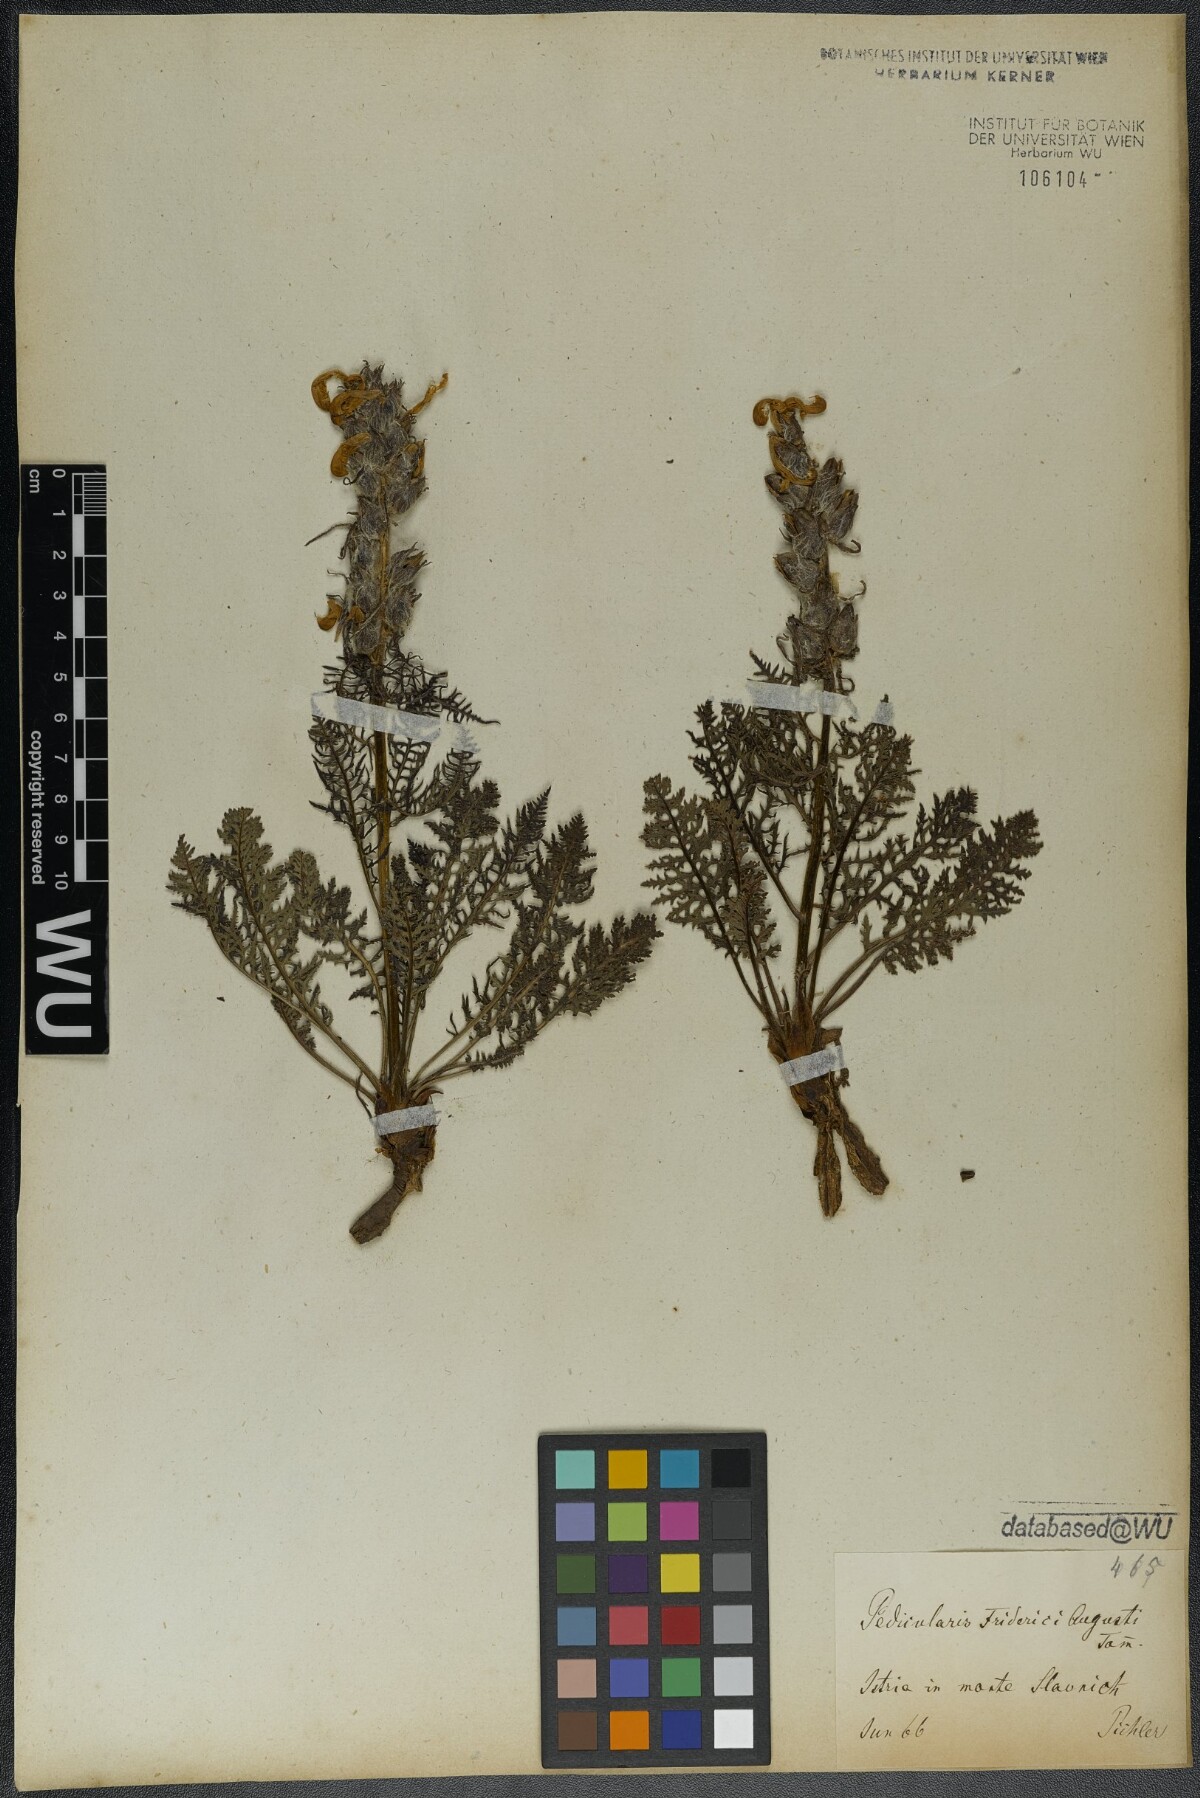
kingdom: Plantae
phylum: Tracheophyta
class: Magnoliopsida
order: Lamiales
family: Orobanchaceae
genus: Pedicularis
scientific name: Pedicularis friderici-augusti
